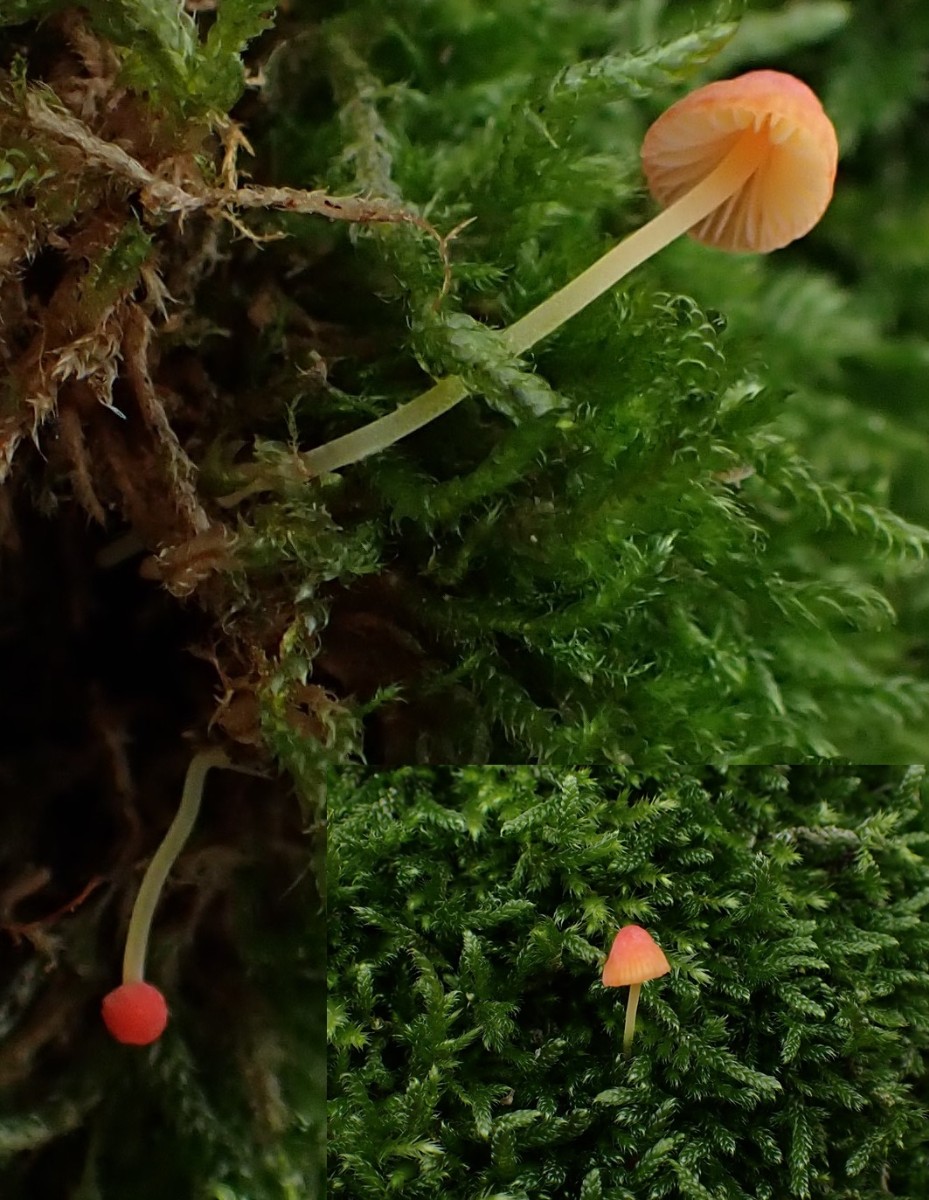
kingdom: Fungi
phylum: Basidiomycota
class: Agaricomycetes
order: Agaricales
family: Mycenaceae
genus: Mycena
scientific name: Mycena acicula
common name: orange huesvamp
